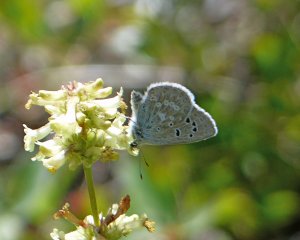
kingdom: Animalia
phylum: Arthropoda
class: Insecta
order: Lepidoptera
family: Lycaenidae
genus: Icaricia
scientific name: Icaricia icarioides
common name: Boisduval's Blue
